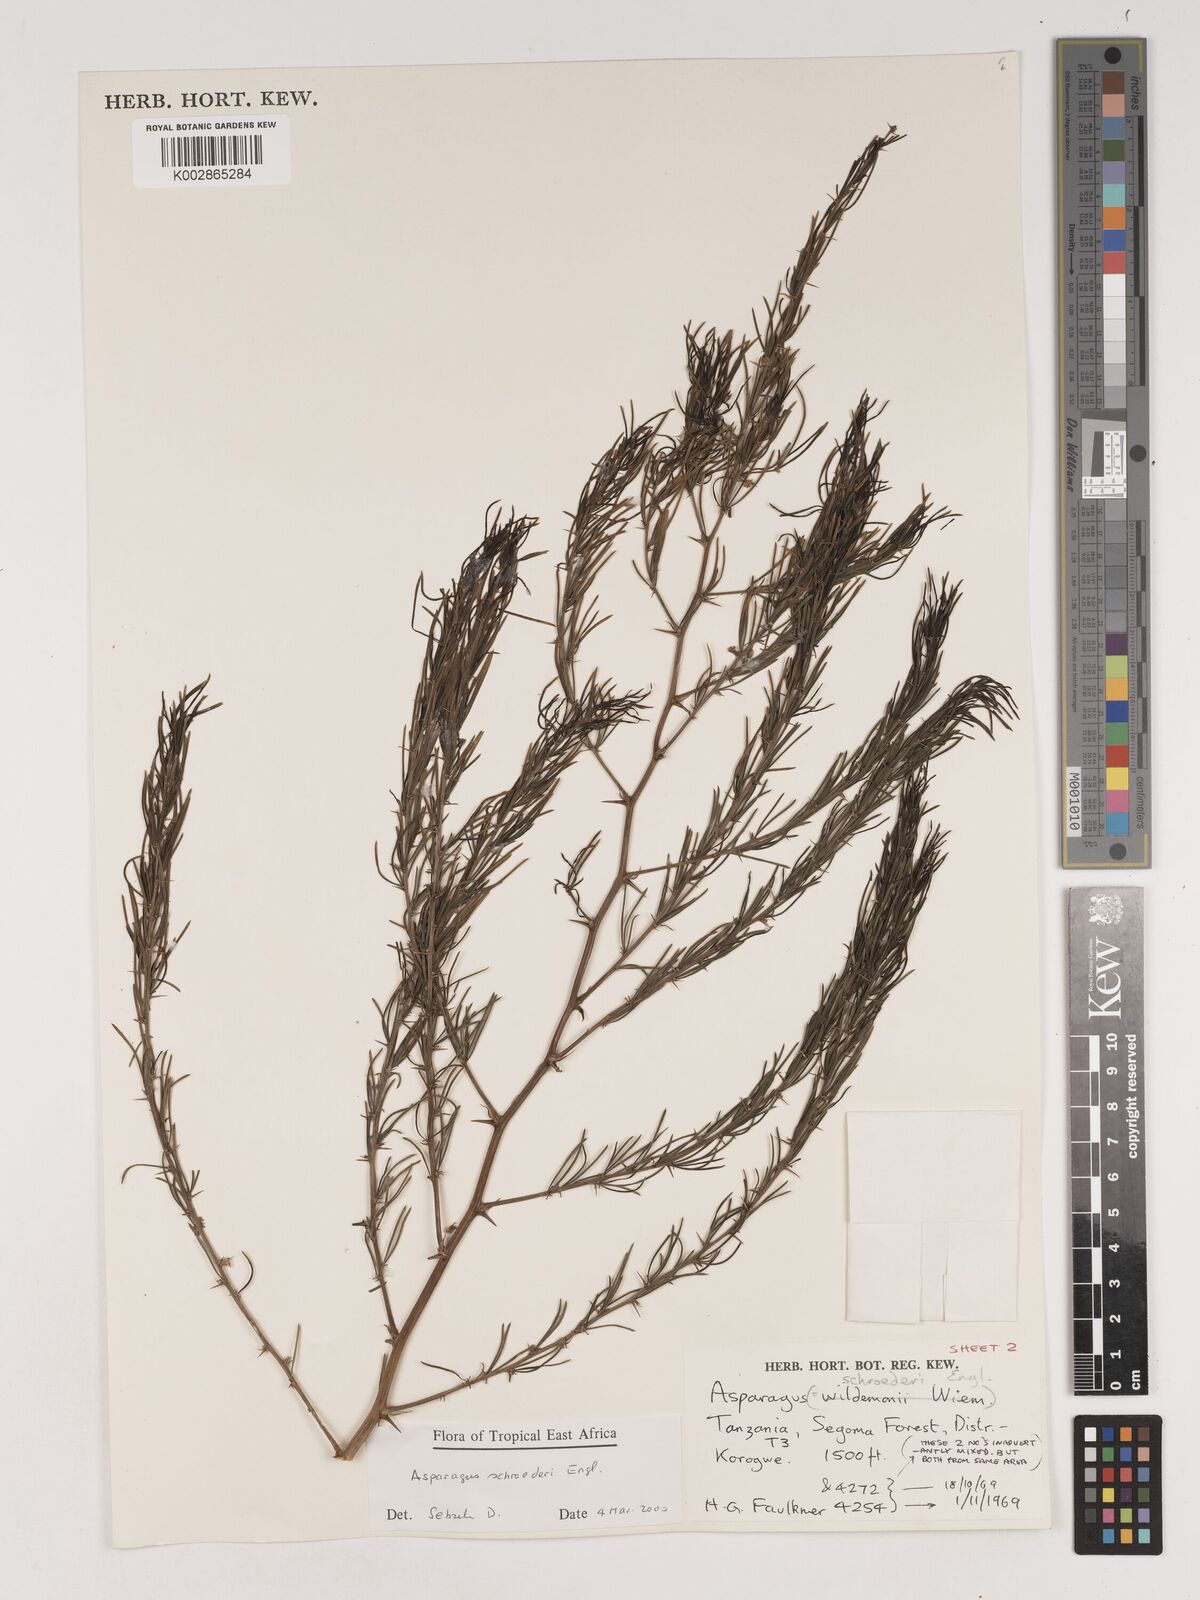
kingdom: Plantae
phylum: Tracheophyta
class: Liliopsida
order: Asparagales
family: Asparagaceae
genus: Asparagus
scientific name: Asparagus schroederi
